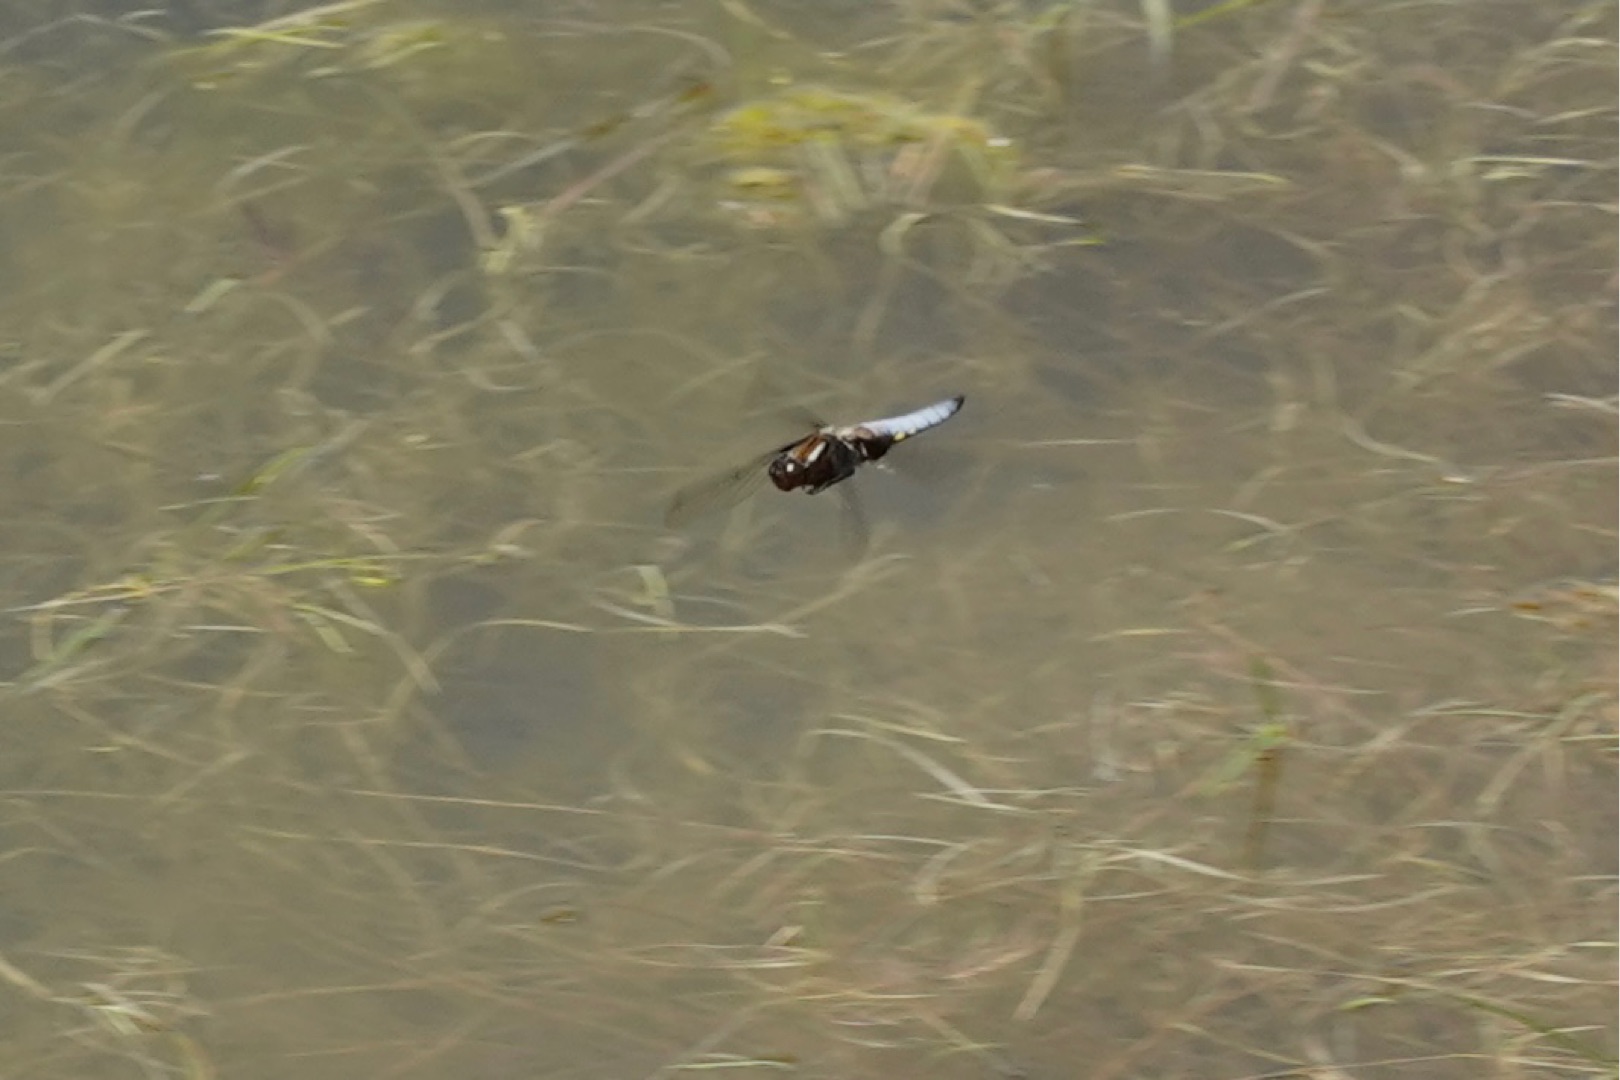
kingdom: Animalia
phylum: Arthropoda
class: Insecta
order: Odonata
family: Libellulidae
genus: Libellula
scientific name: Libellula depressa
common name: Blå libel
